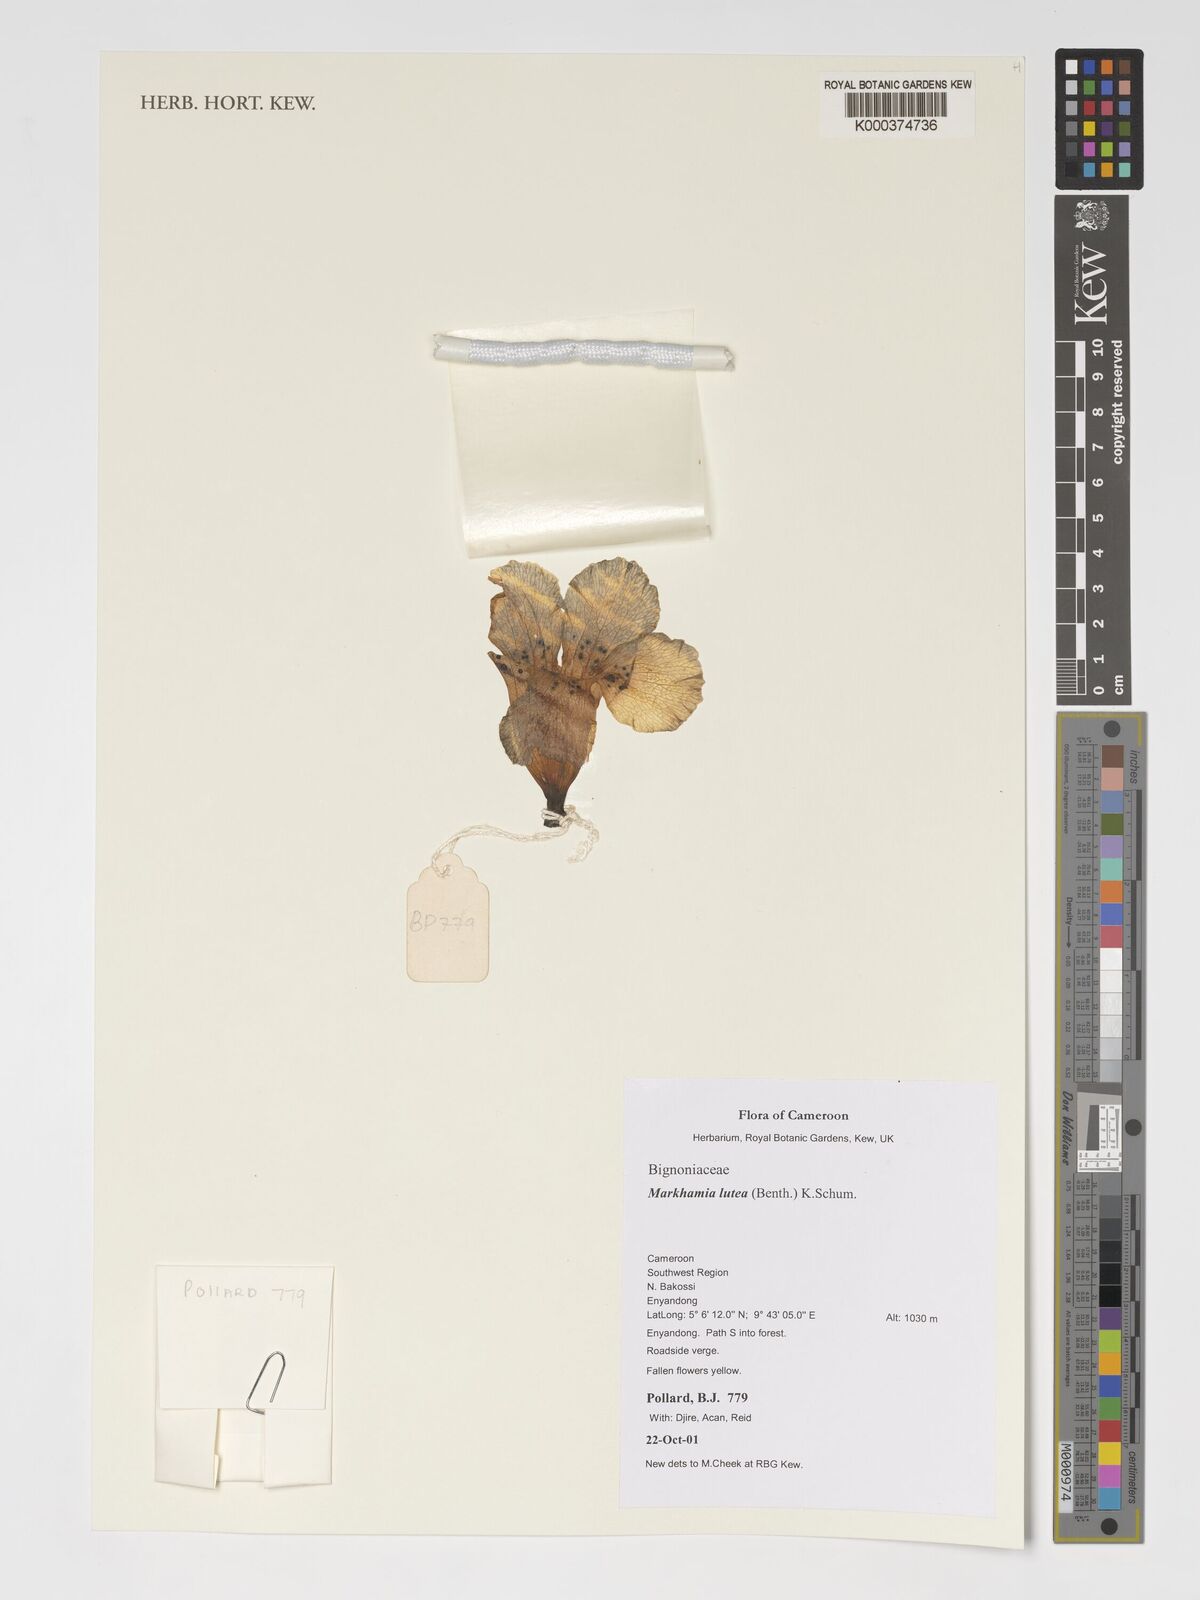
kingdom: Plantae
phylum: Tracheophyta
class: Magnoliopsida
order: Lamiales
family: Bignoniaceae
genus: Markhamia
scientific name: Markhamia lutea
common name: Siala
